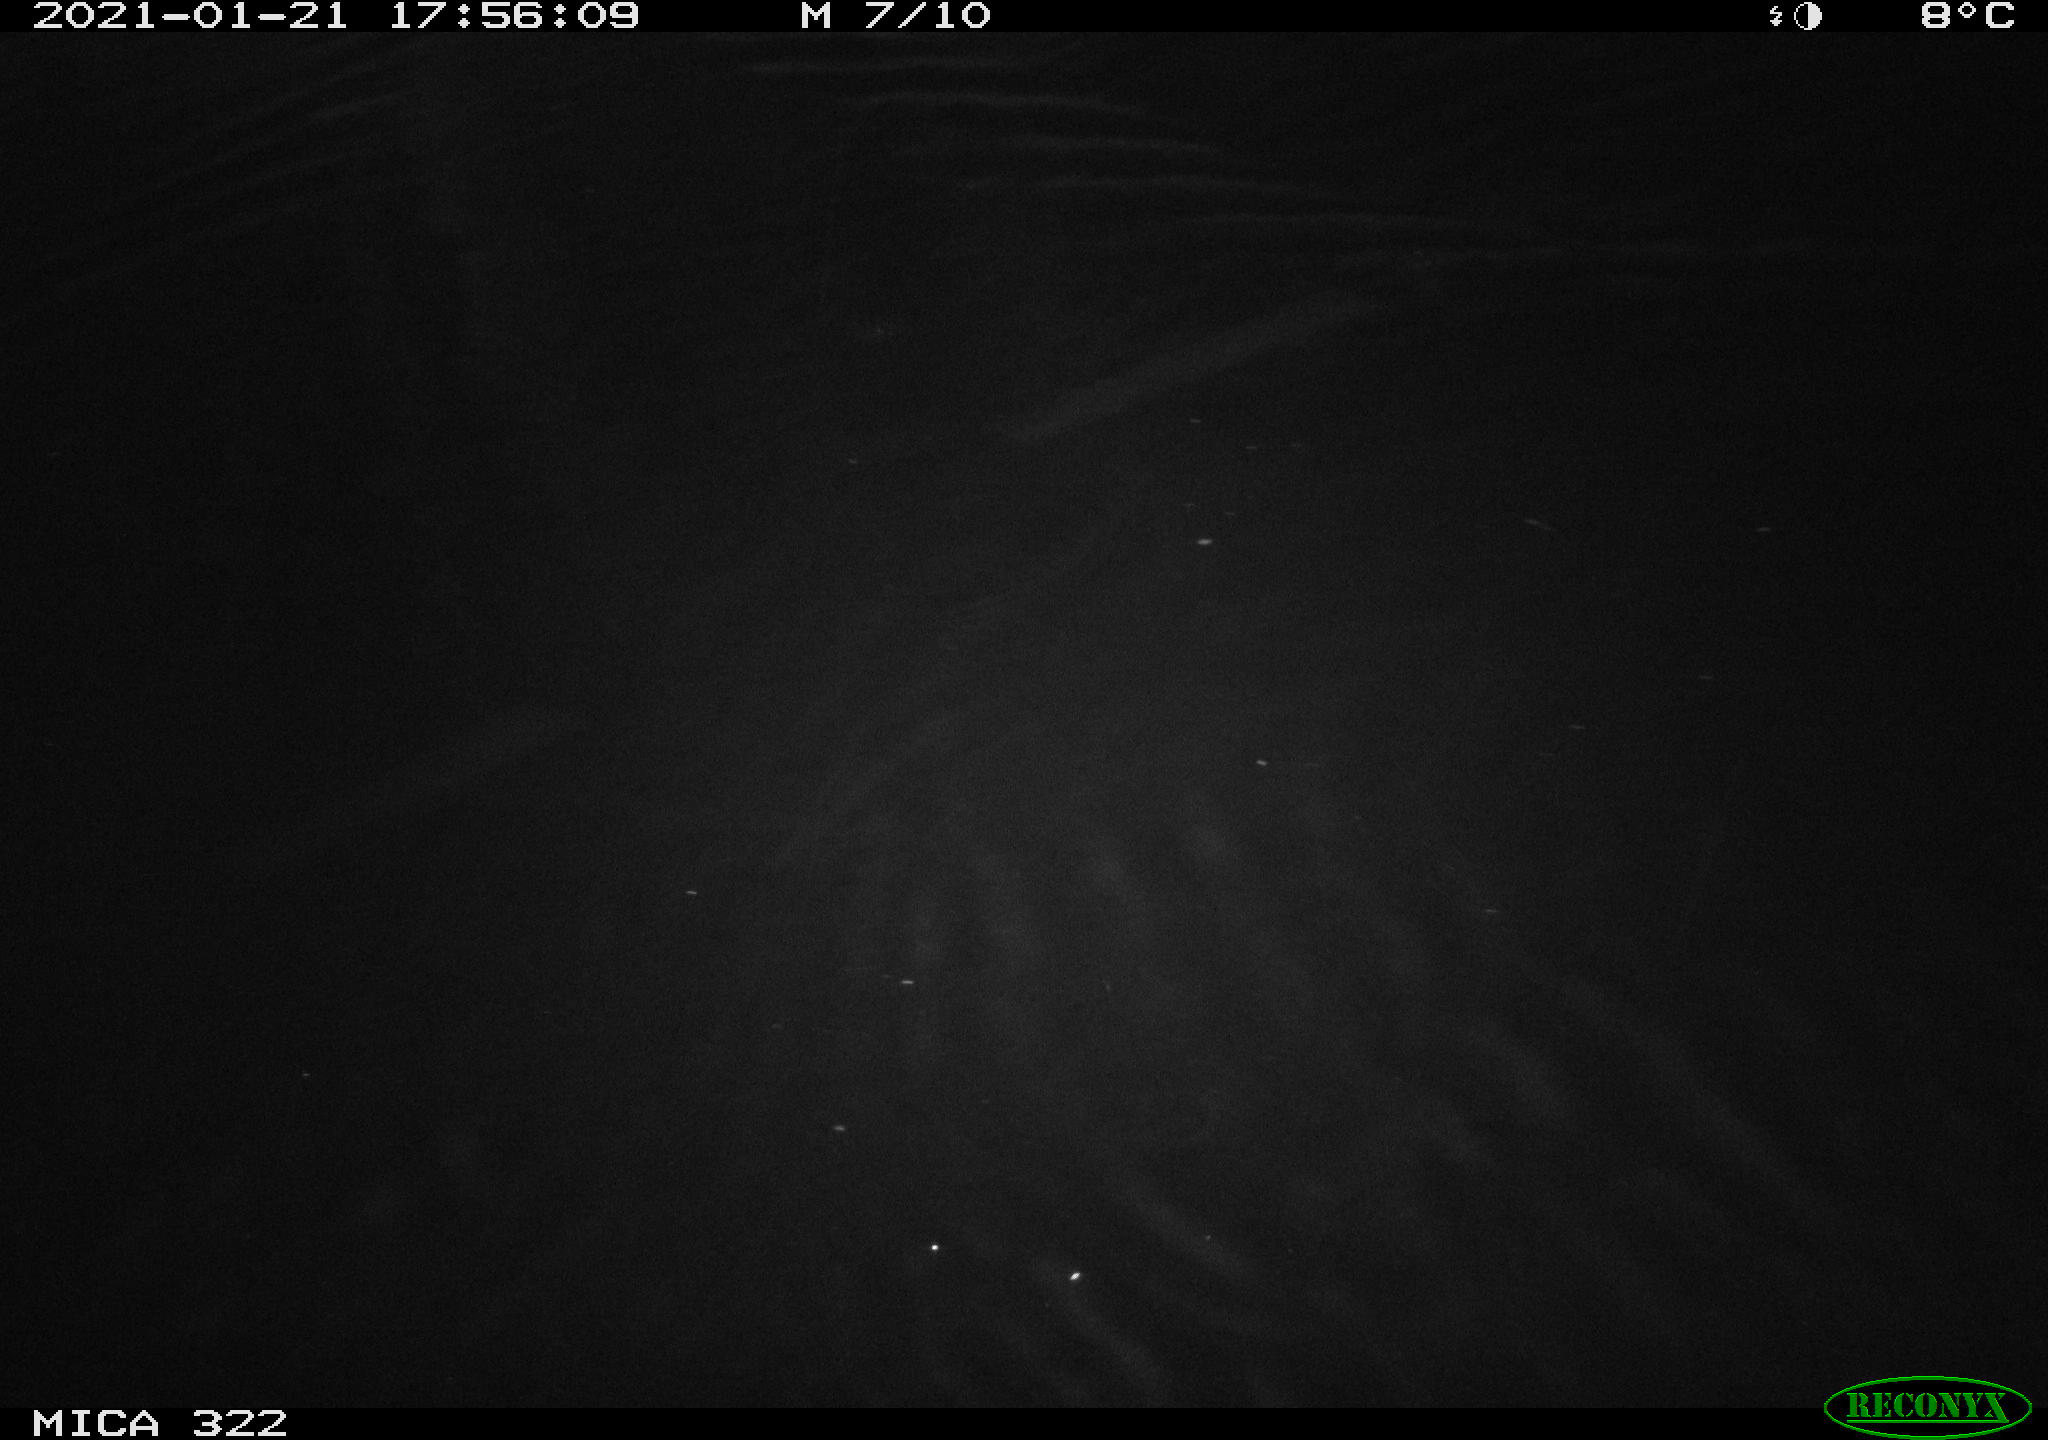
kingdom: Animalia
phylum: Chordata
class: Mammalia
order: Rodentia
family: Muridae
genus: Rattus
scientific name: Rattus norvegicus
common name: Brown rat
